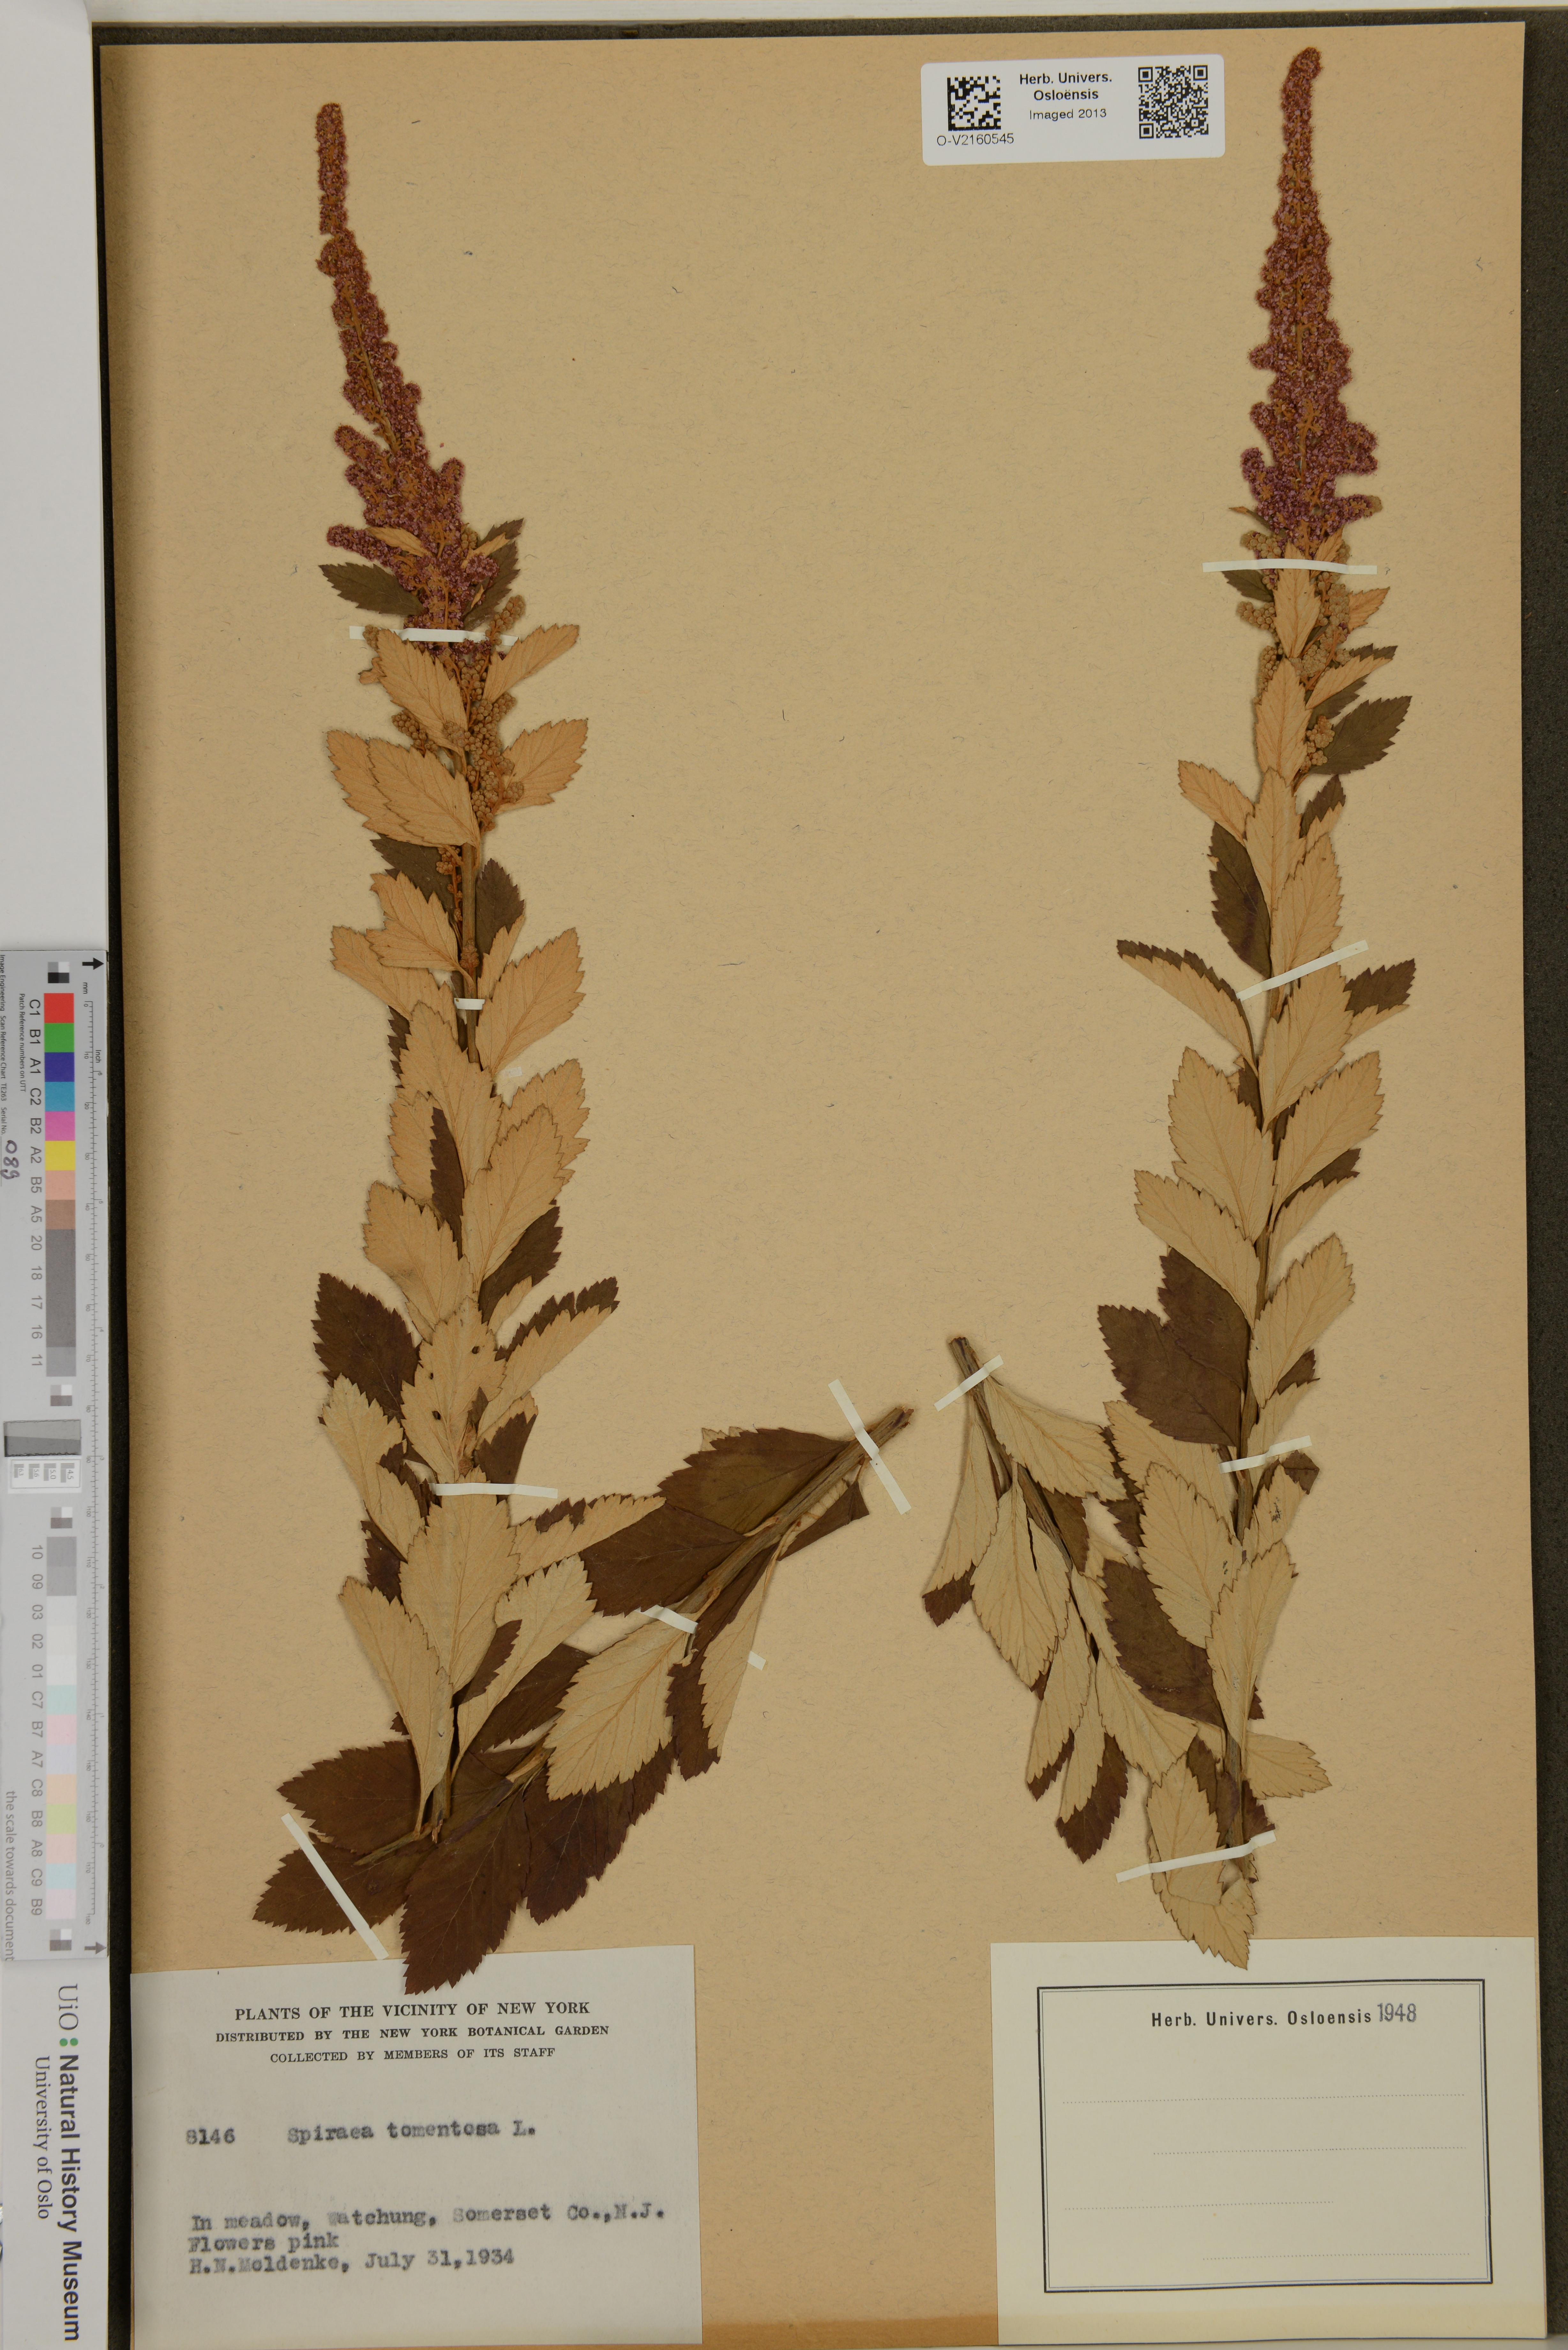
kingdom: Plantae
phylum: Tracheophyta
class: Magnoliopsida
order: Rosales
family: Rosaceae
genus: Spiraea
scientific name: Spiraea tomentosa
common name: Hardhack
